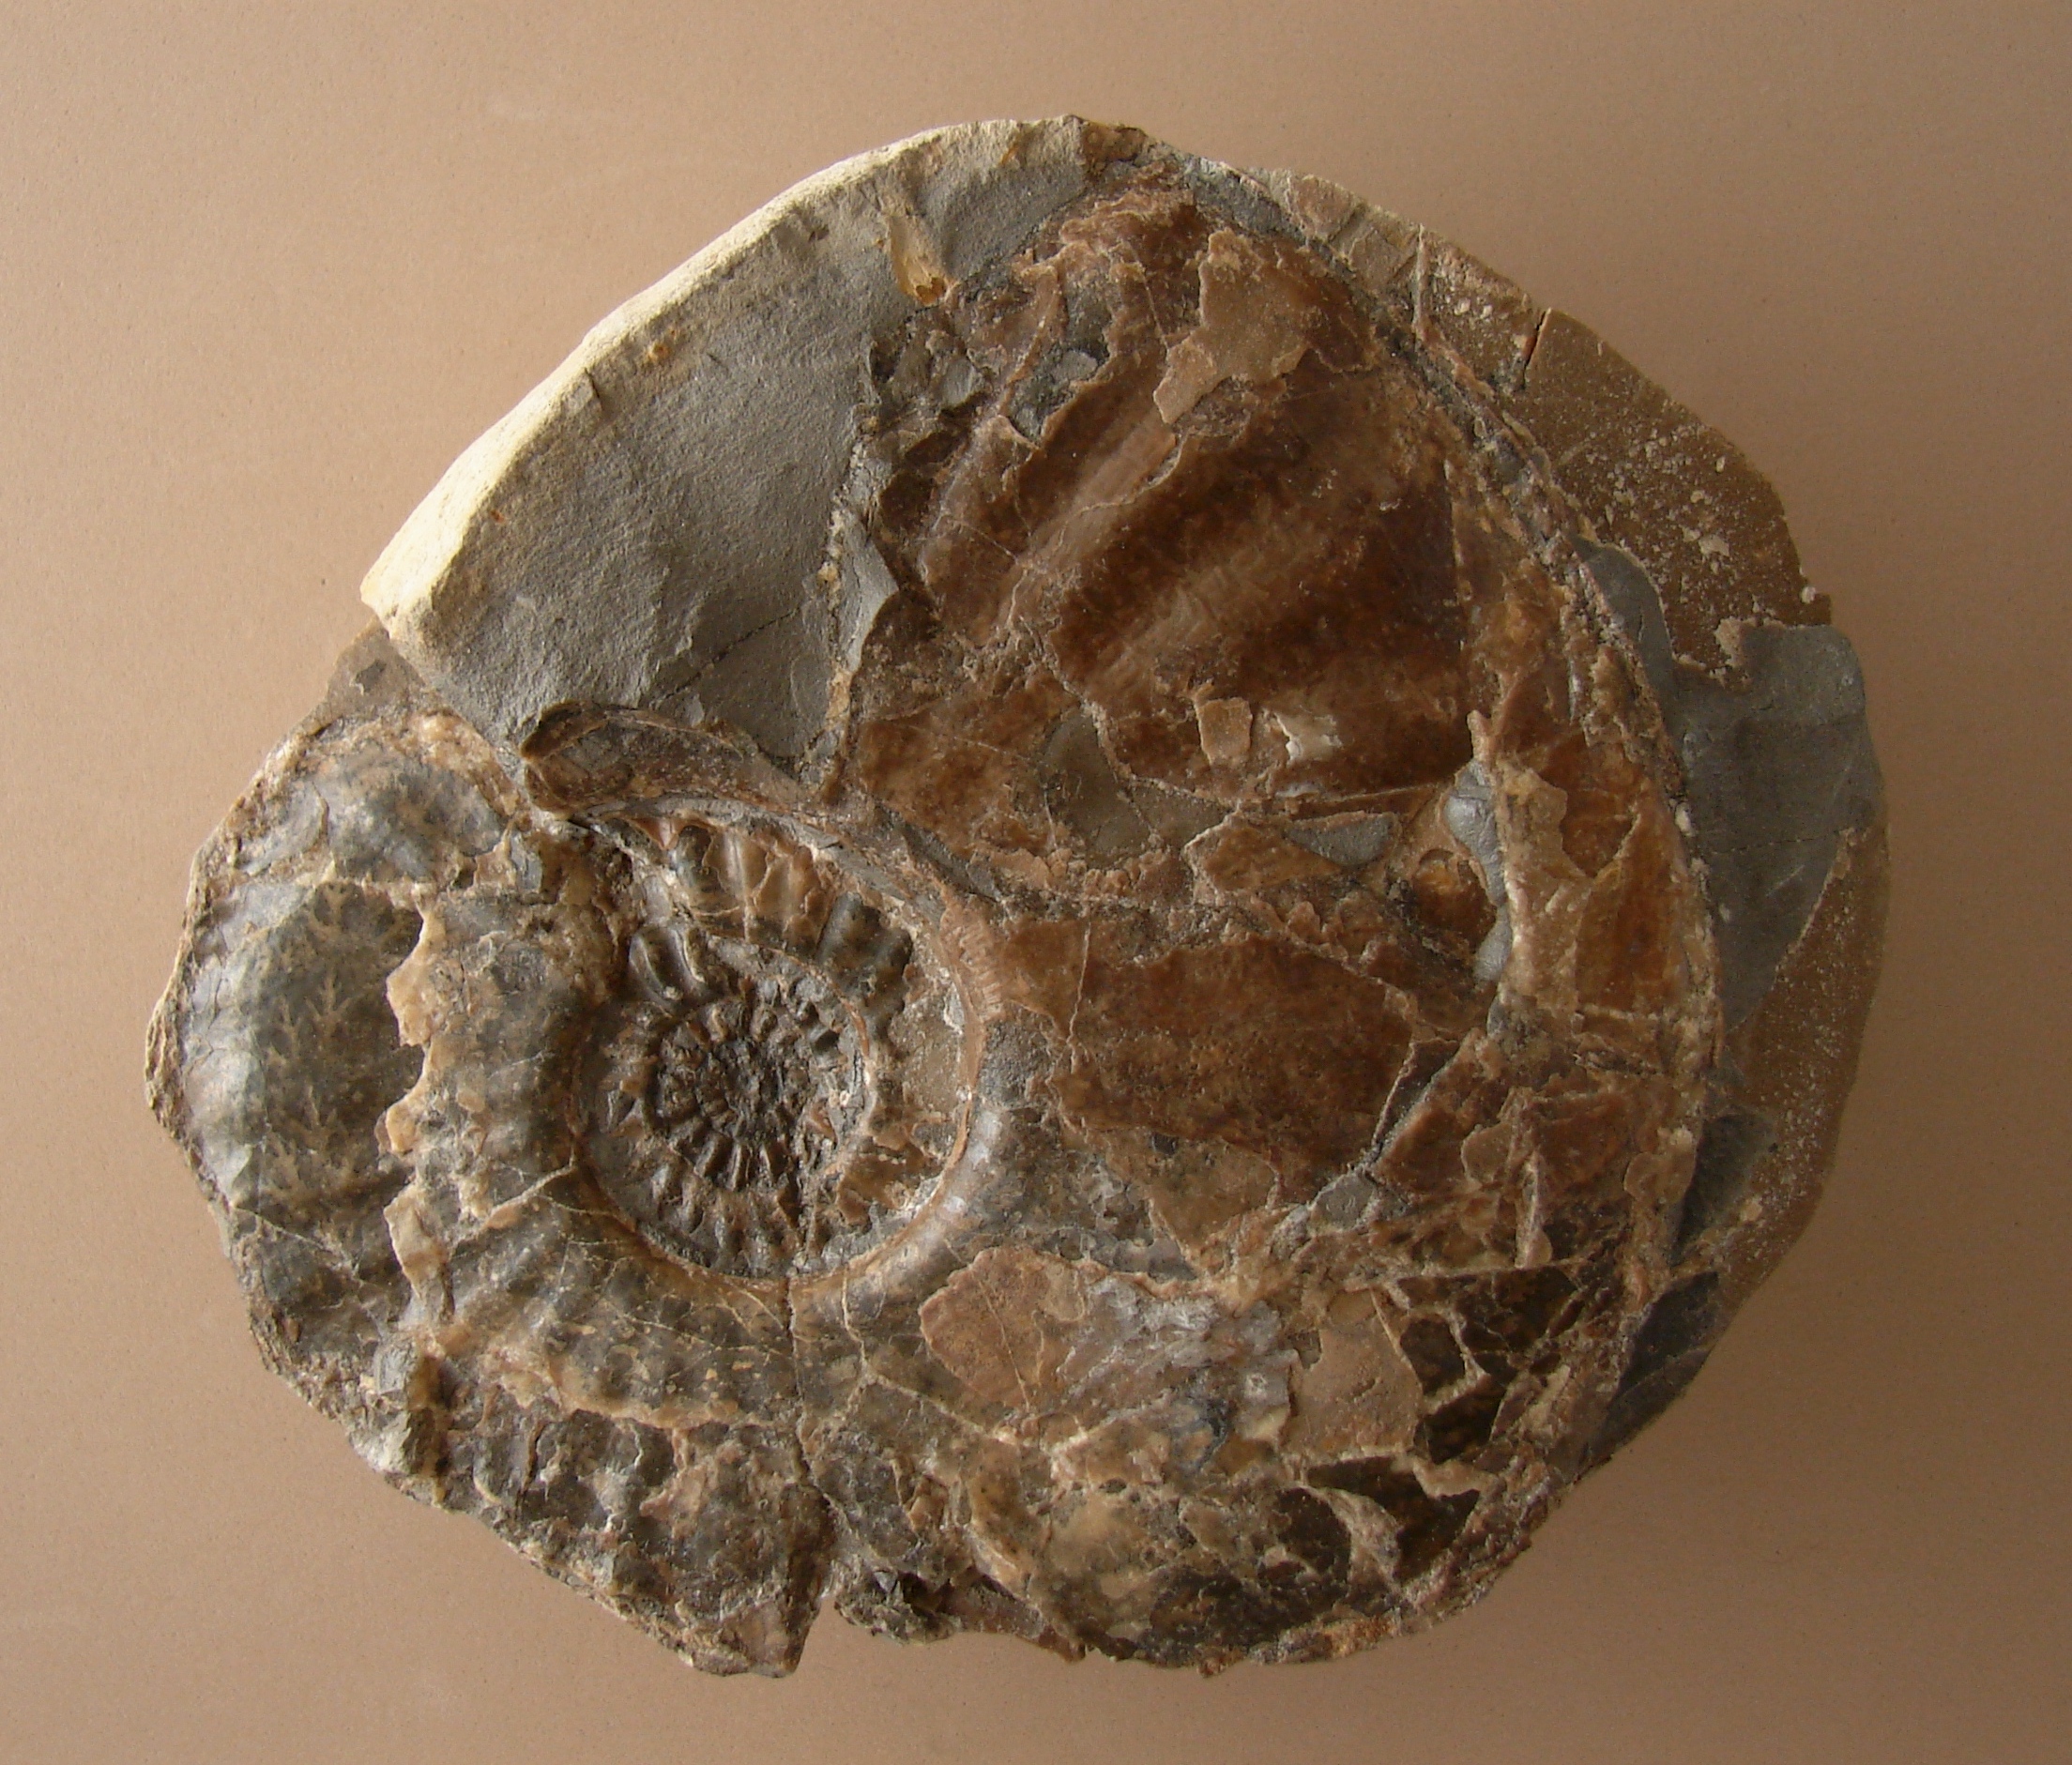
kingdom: Animalia
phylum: Mollusca
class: Cephalopoda
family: Amaltheidae
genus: Amaltheus
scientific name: Amaltheus
